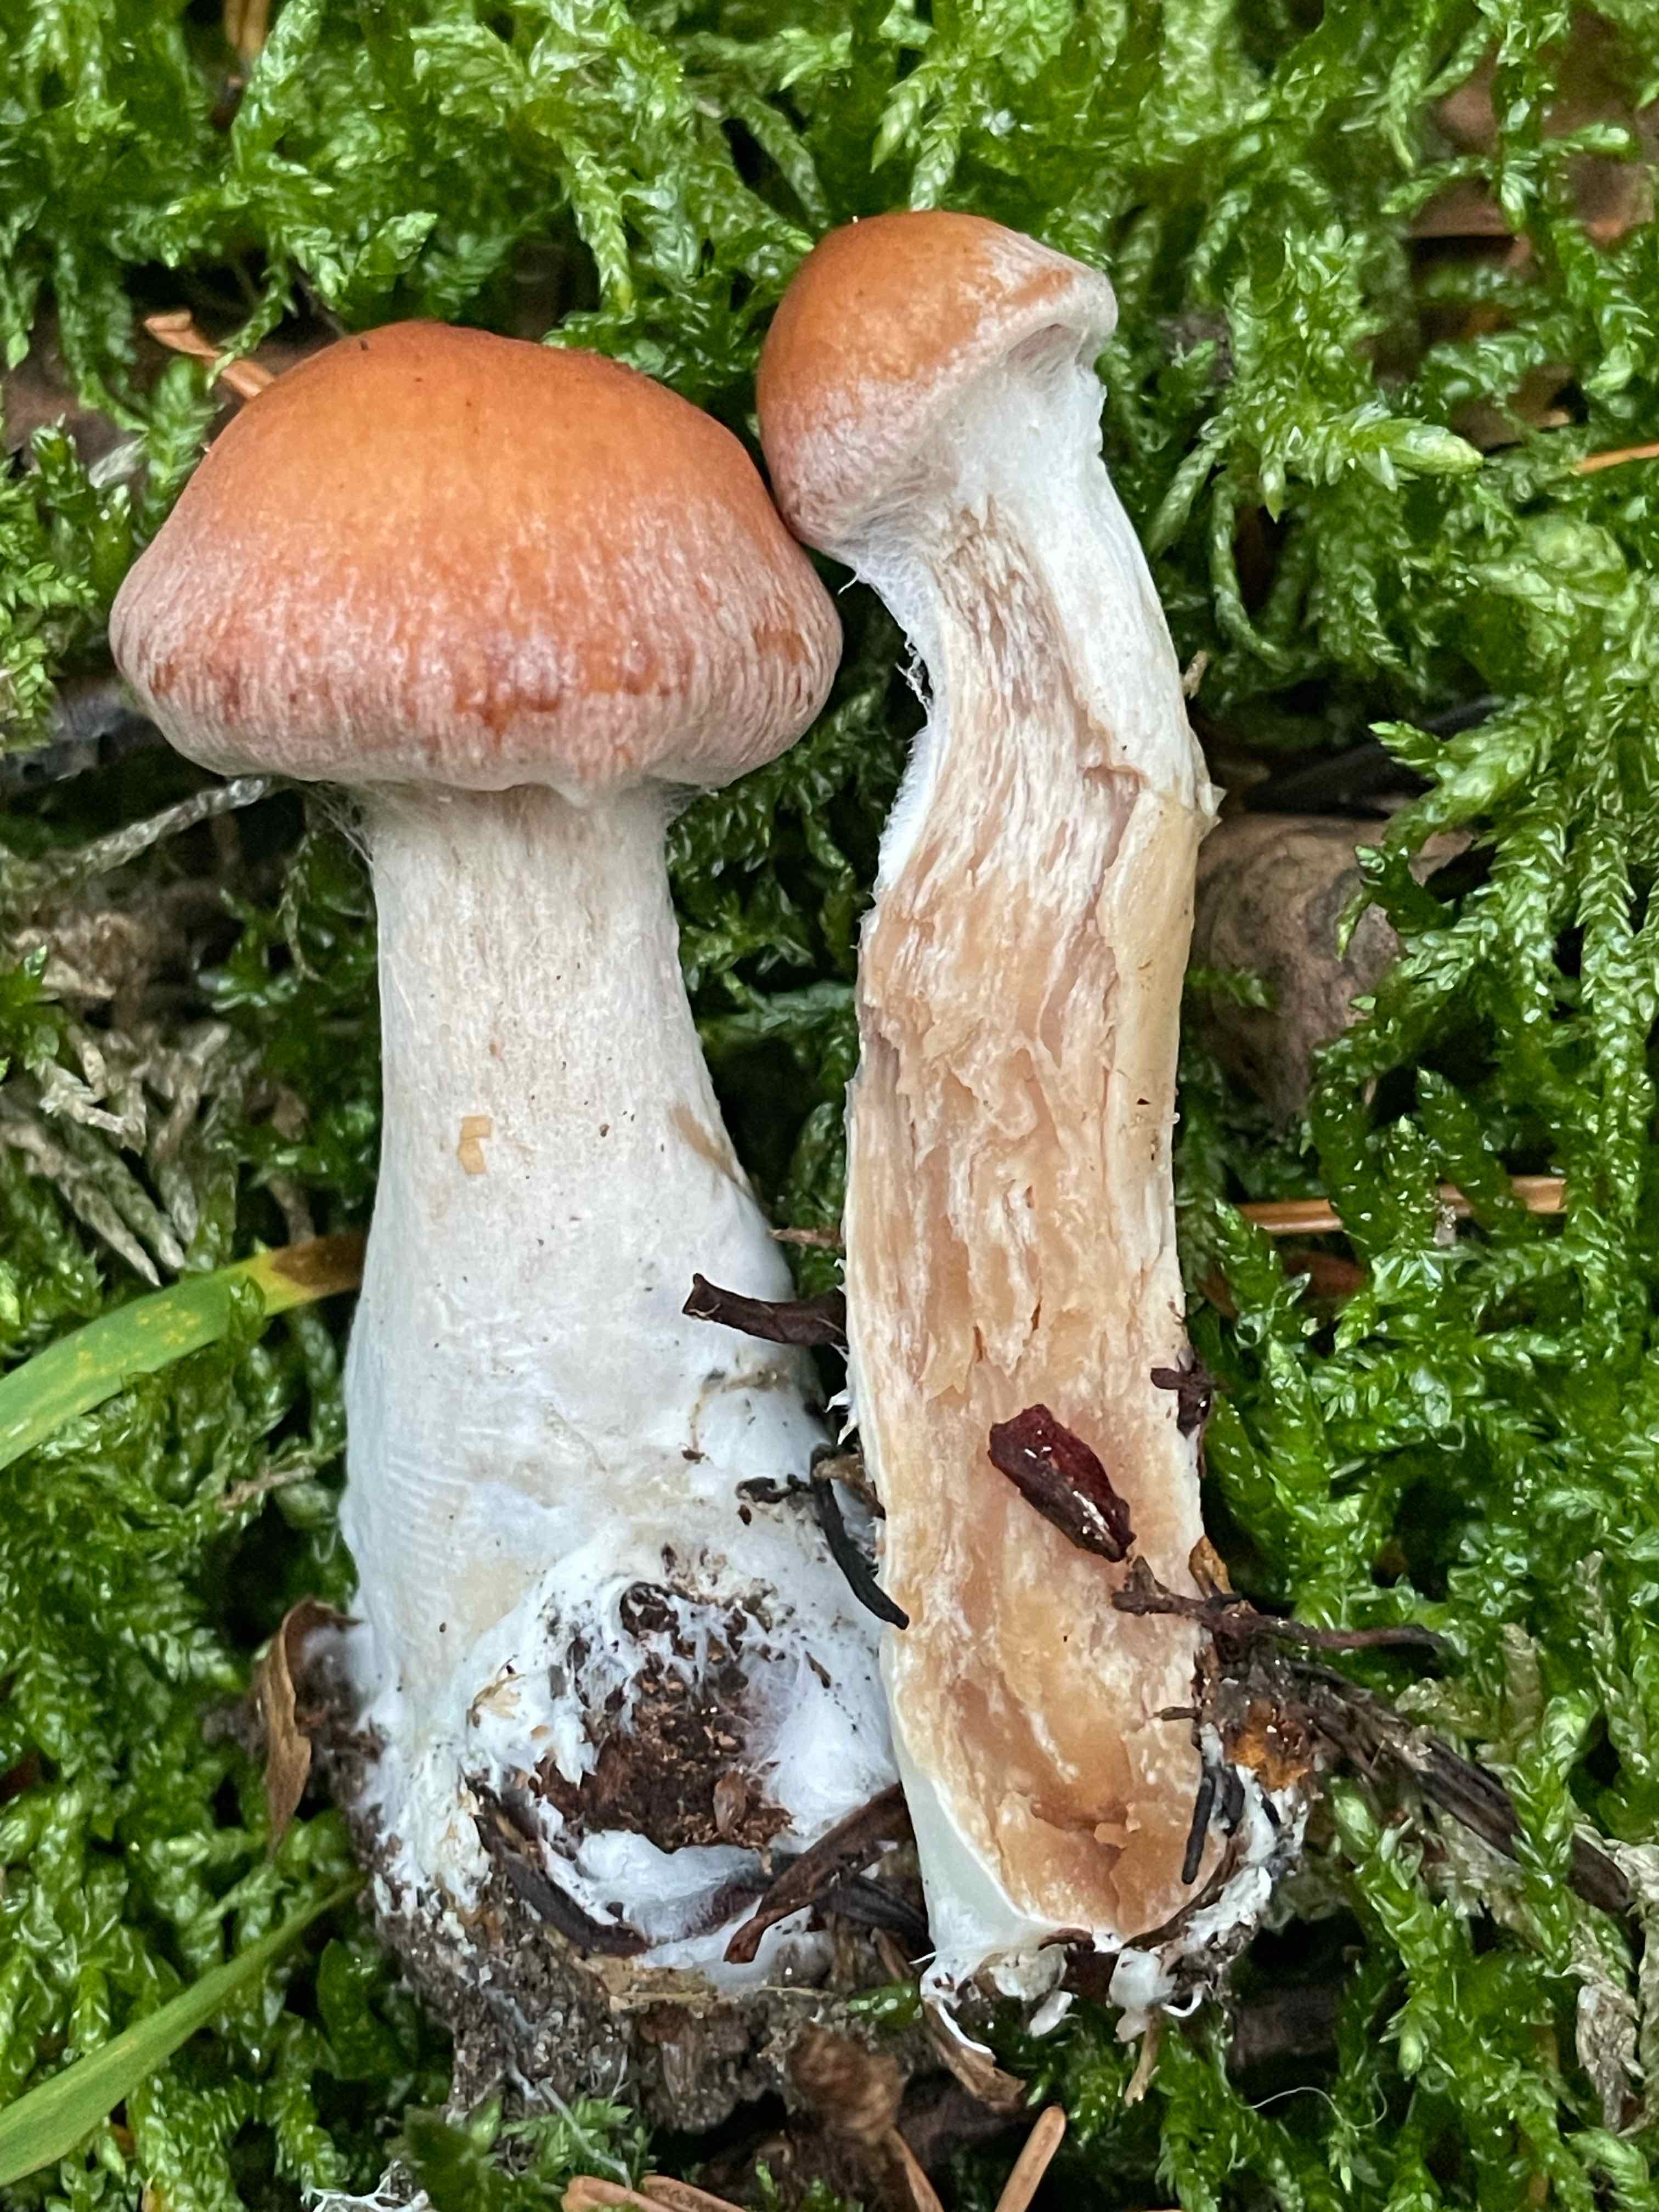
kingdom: Fungi
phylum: Basidiomycota
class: Agaricomycetes
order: Agaricales
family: Cortinariaceae
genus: Cortinarius
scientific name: Cortinarius
